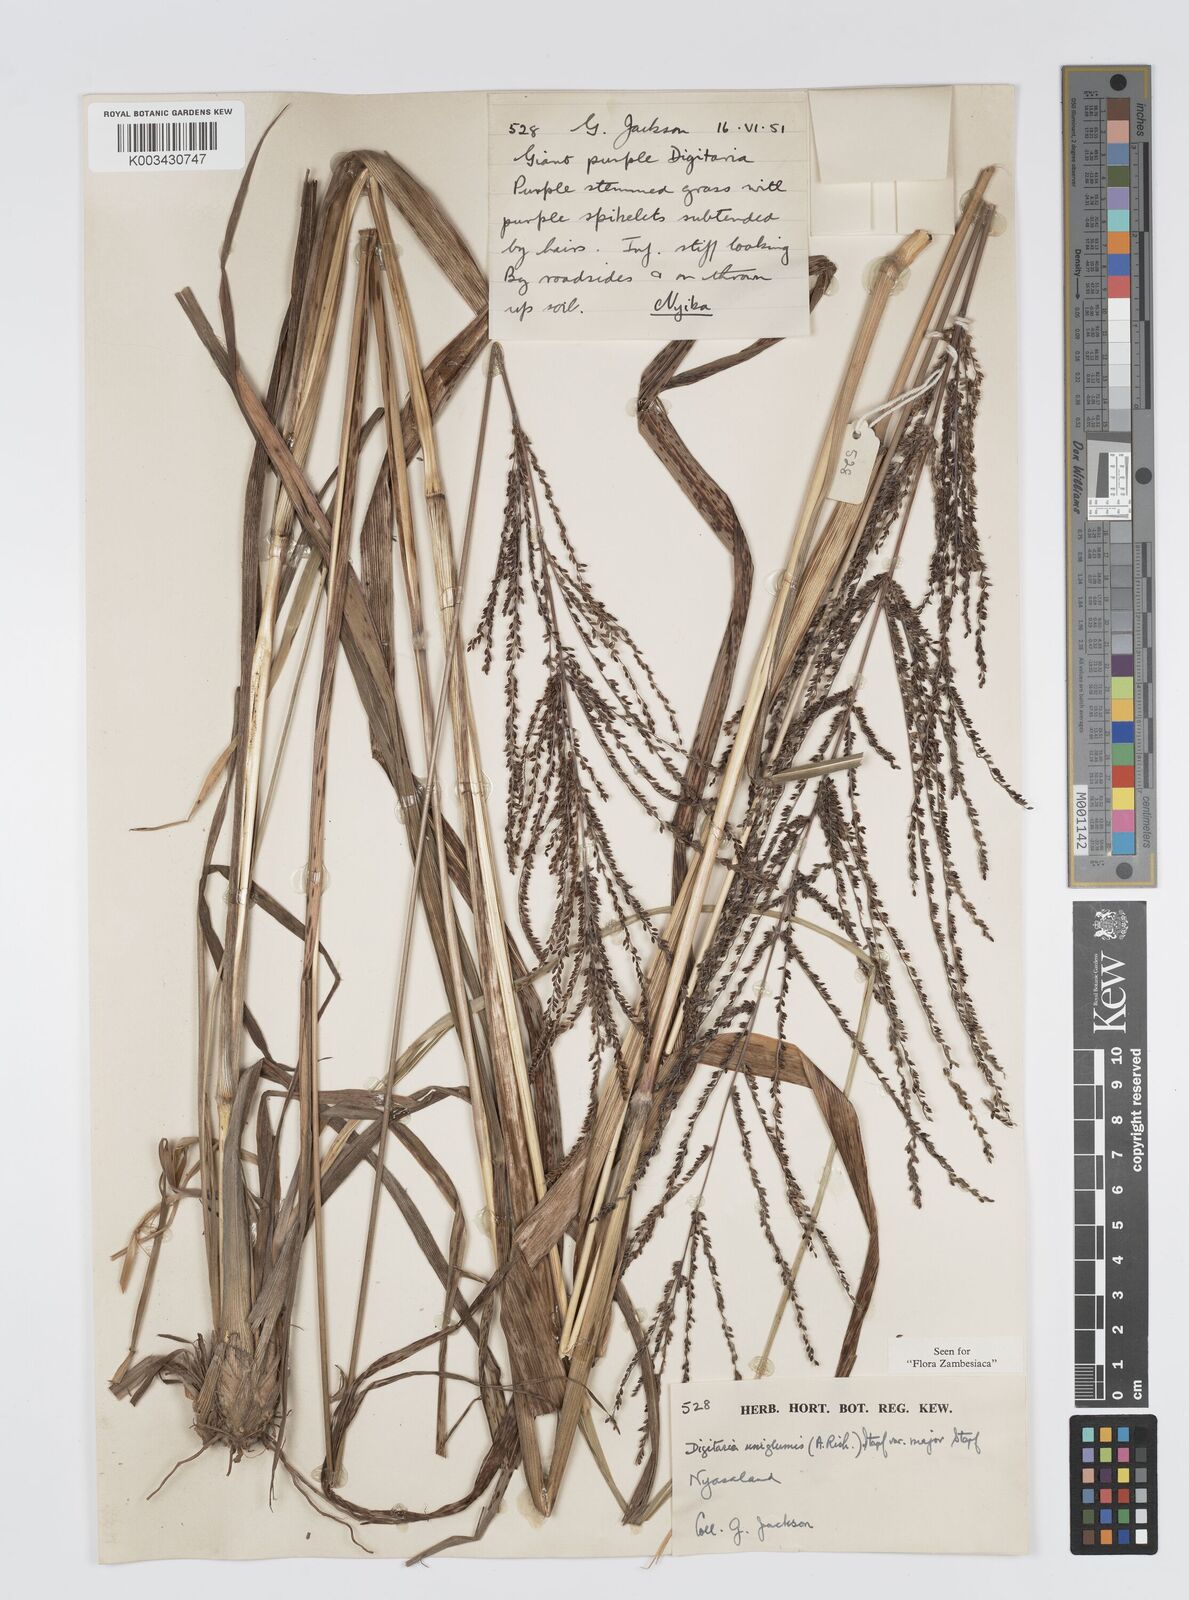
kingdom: Plantae
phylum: Tracheophyta
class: Liliopsida
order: Poales
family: Poaceae
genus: Digitaria
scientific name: Digitaria diagonalis
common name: Brown-seed finger grass
